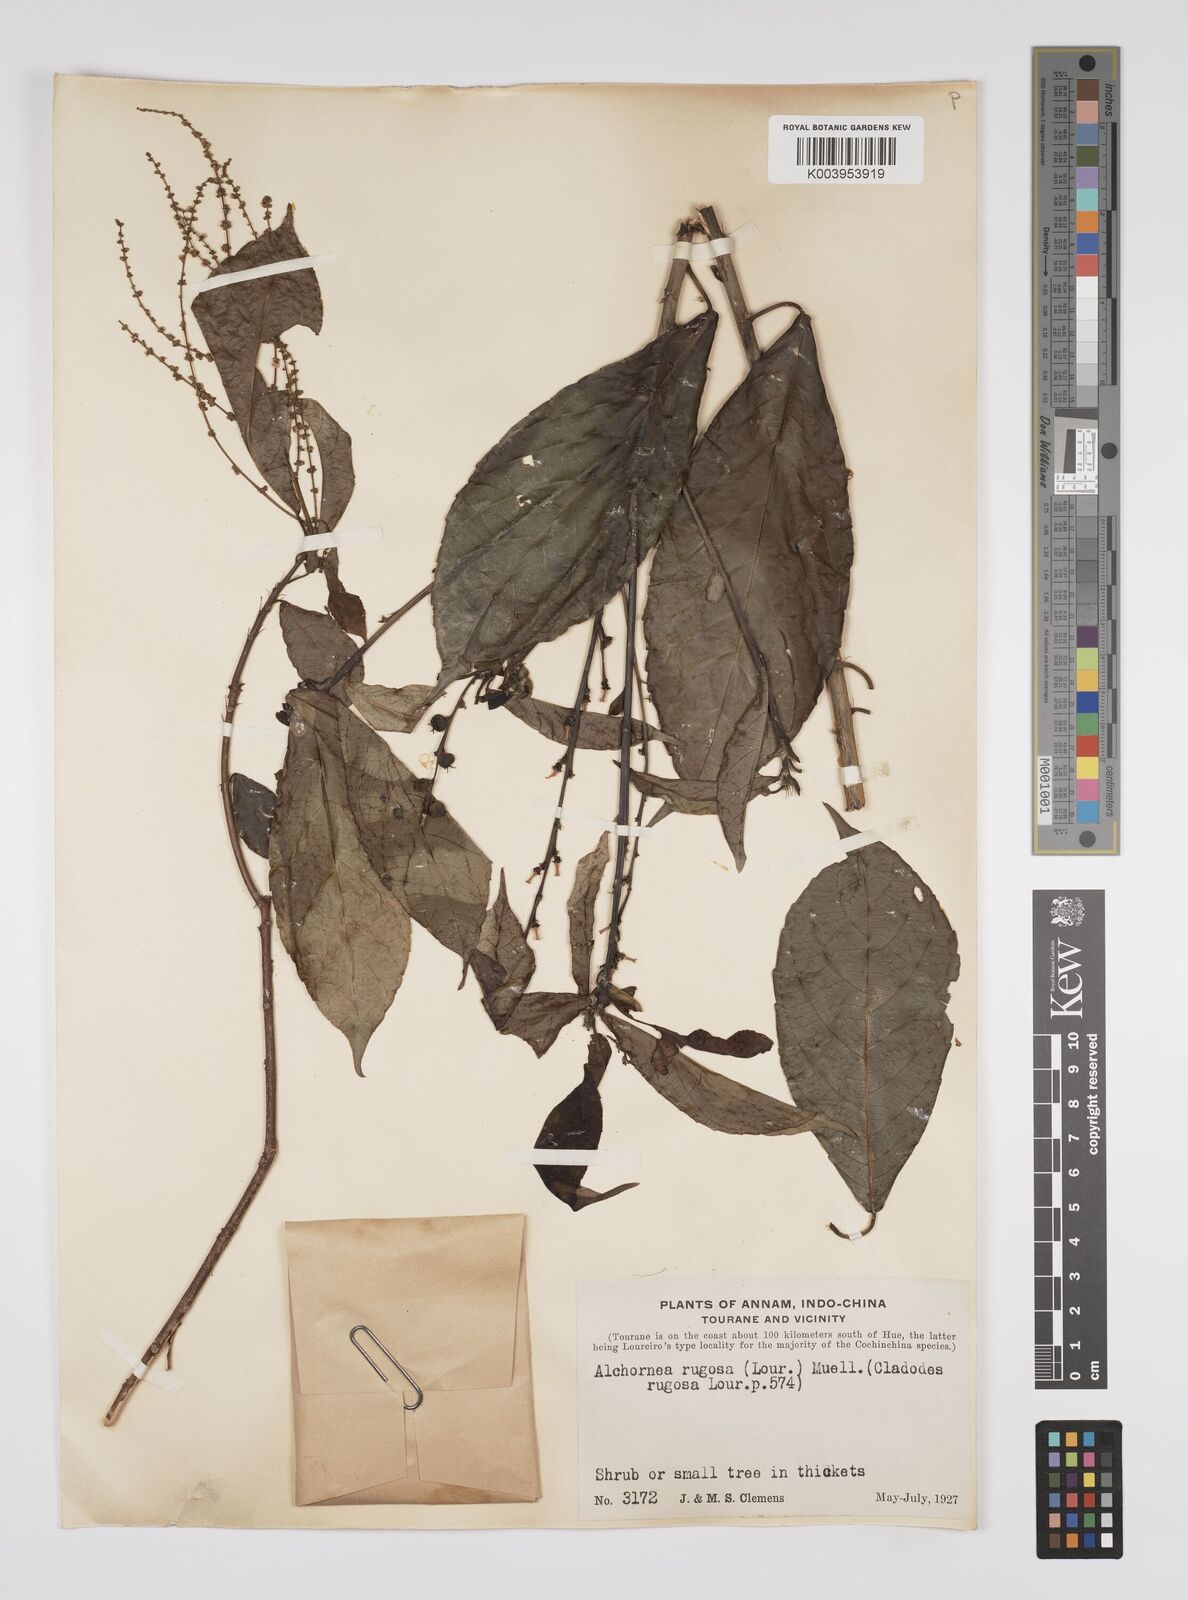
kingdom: Plantae
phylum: Tracheophyta
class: Magnoliopsida
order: Malpighiales
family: Euphorbiaceae
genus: Alchornea
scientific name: Alchornea rugosa
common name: Alchorntree
